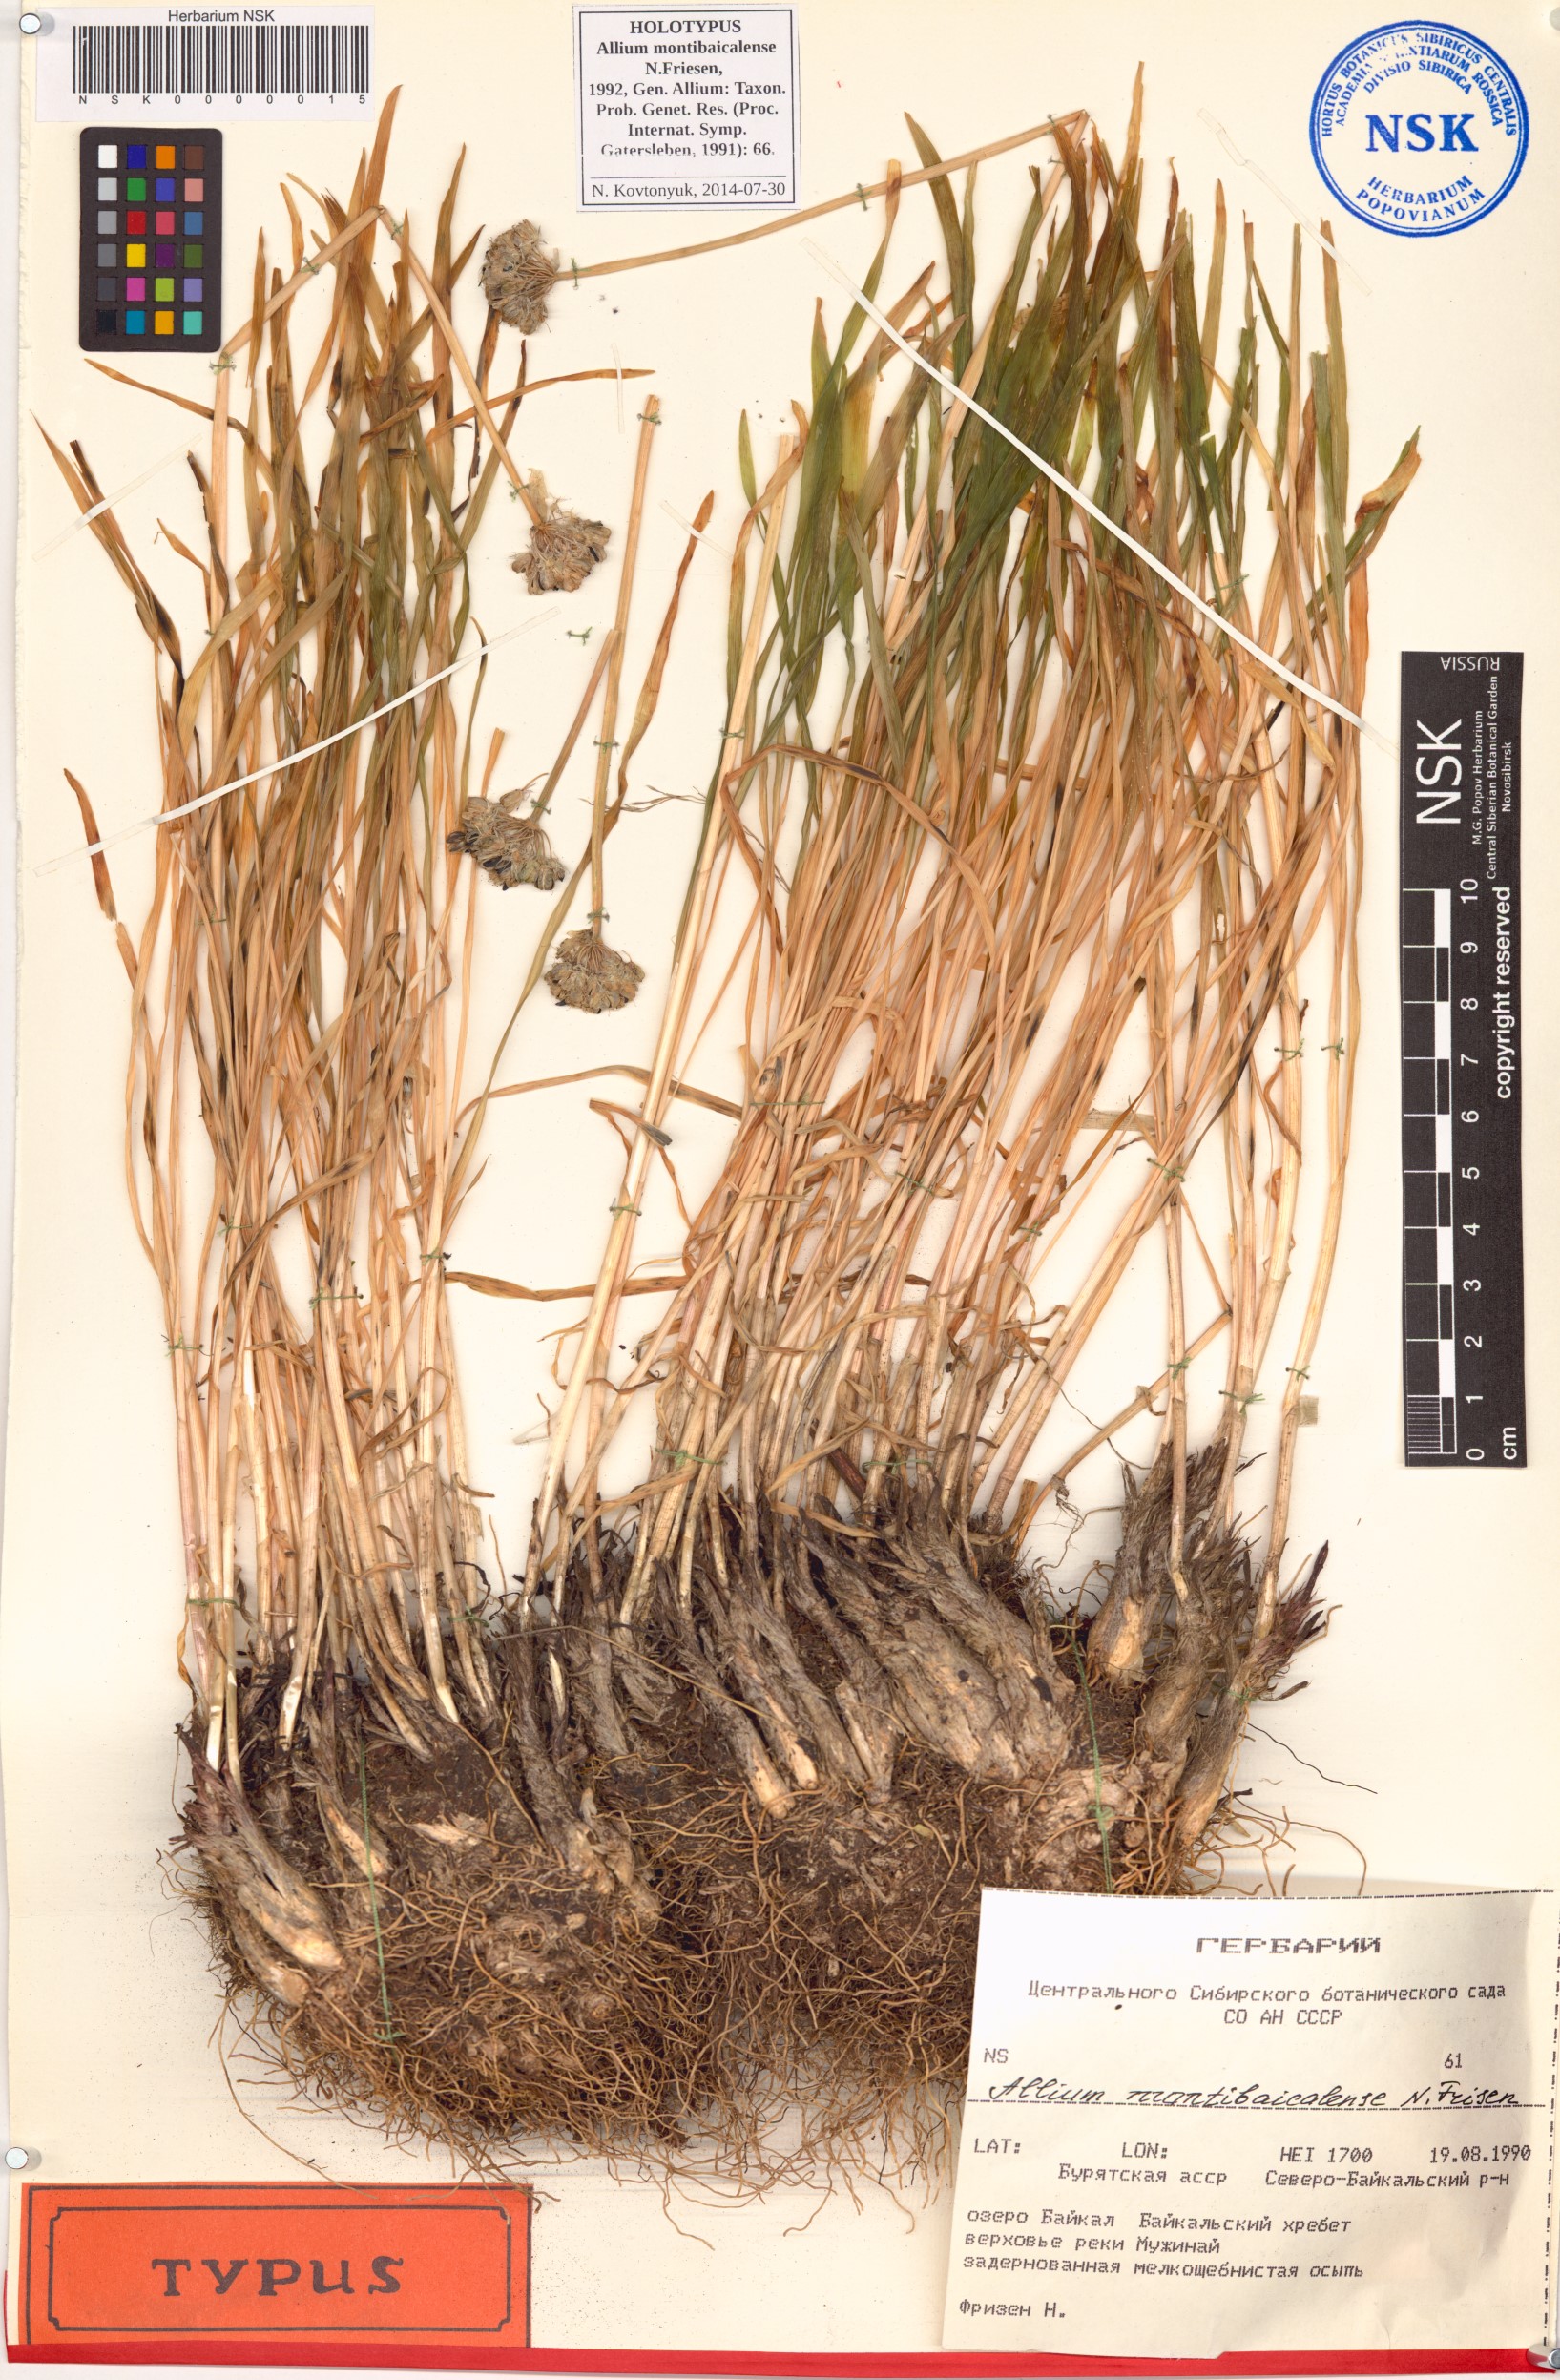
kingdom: Plantae
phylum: Tracheophyta
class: Liliopsida
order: Asparagales
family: Amaryllidaceae
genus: Allium
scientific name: Allium montibaicalense
